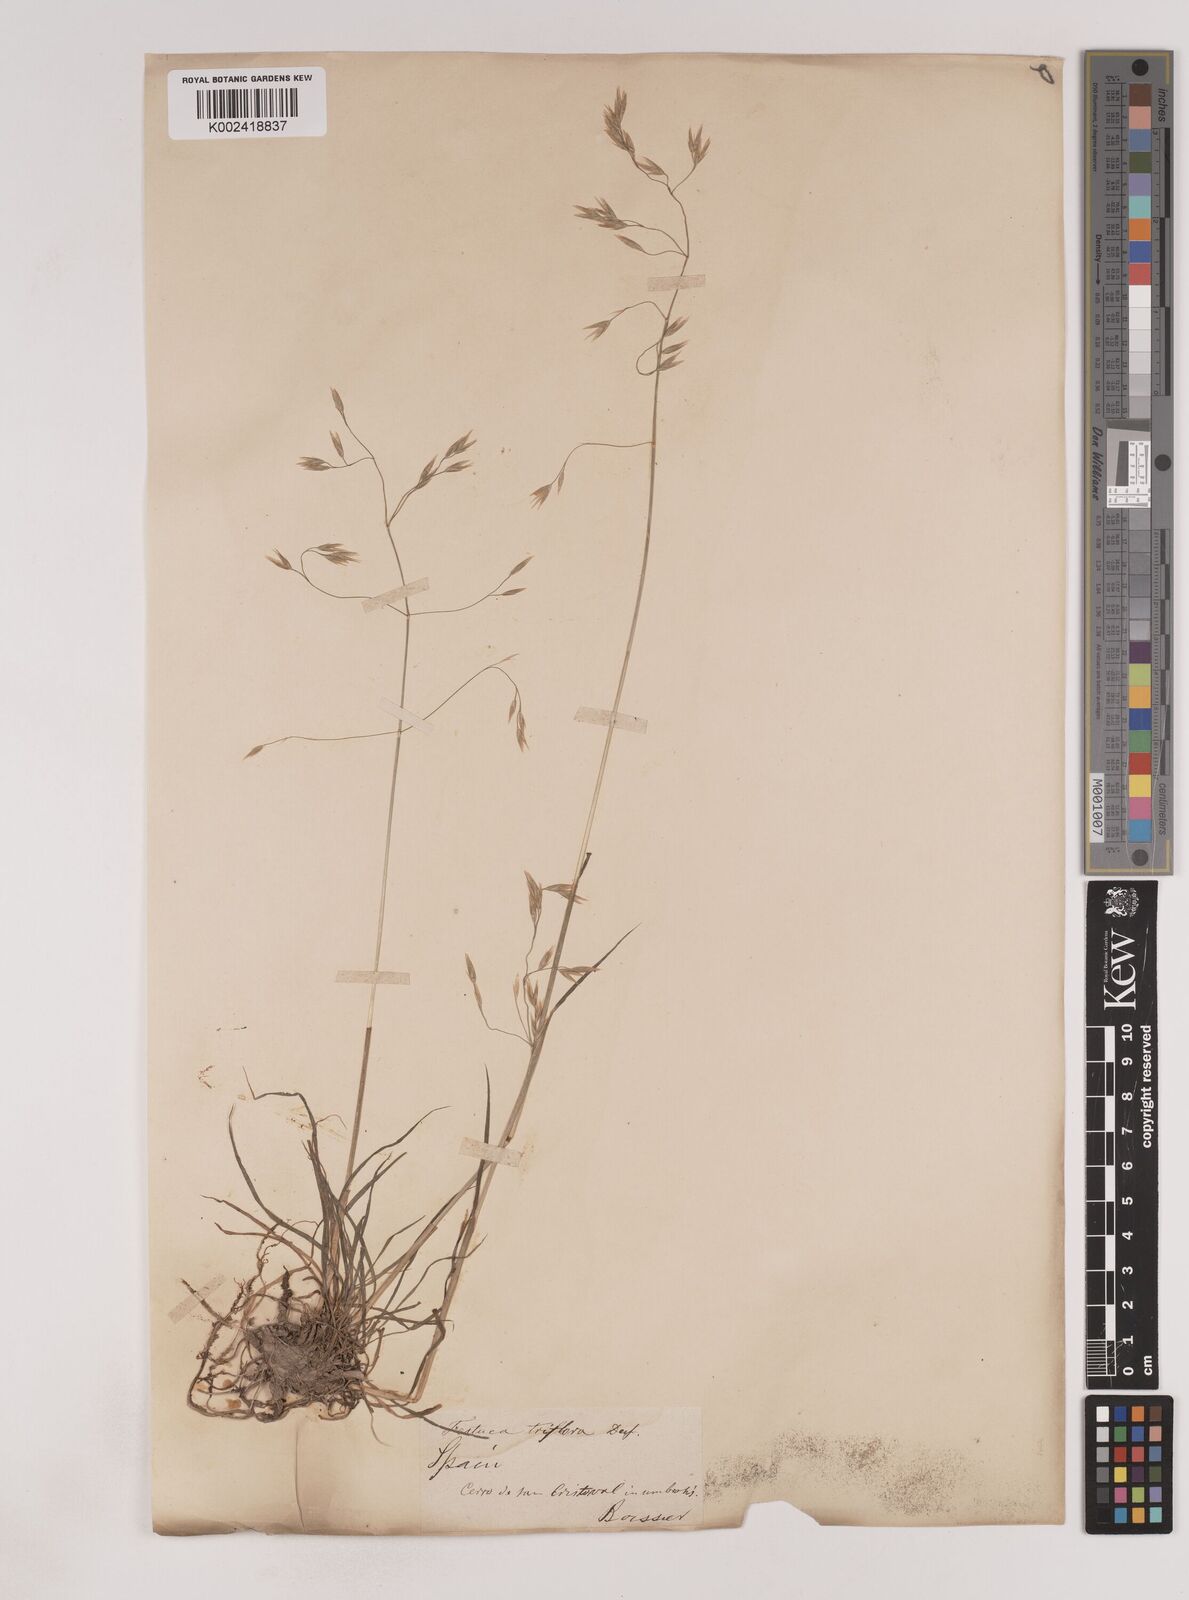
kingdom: Plantae
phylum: Tracheophyta
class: Liliopsida
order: Poales
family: Poaceae
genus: Patzkea
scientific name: Patzkea patula
